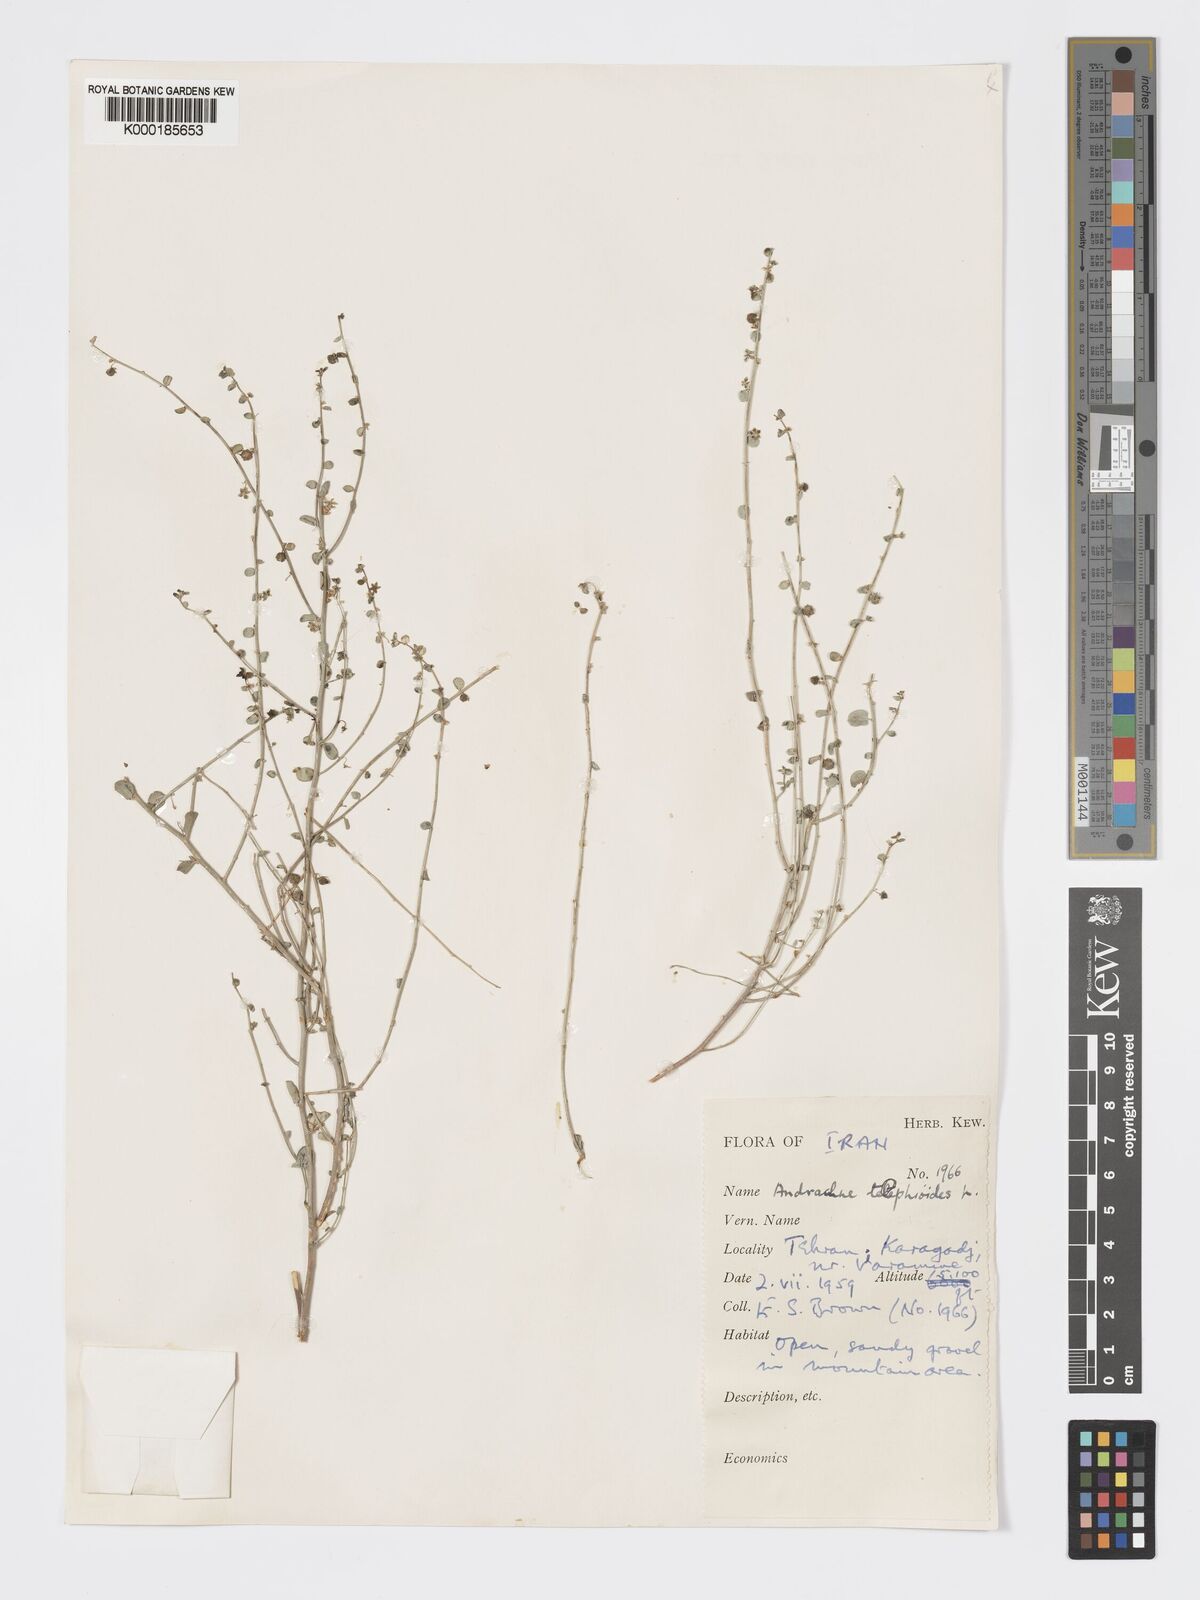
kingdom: Plantae
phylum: Tracheophyta
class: Magnoliopsida
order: Malpighiales
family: Phyllanthaceae
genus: Andrachne
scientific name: Andrachne telephioides
